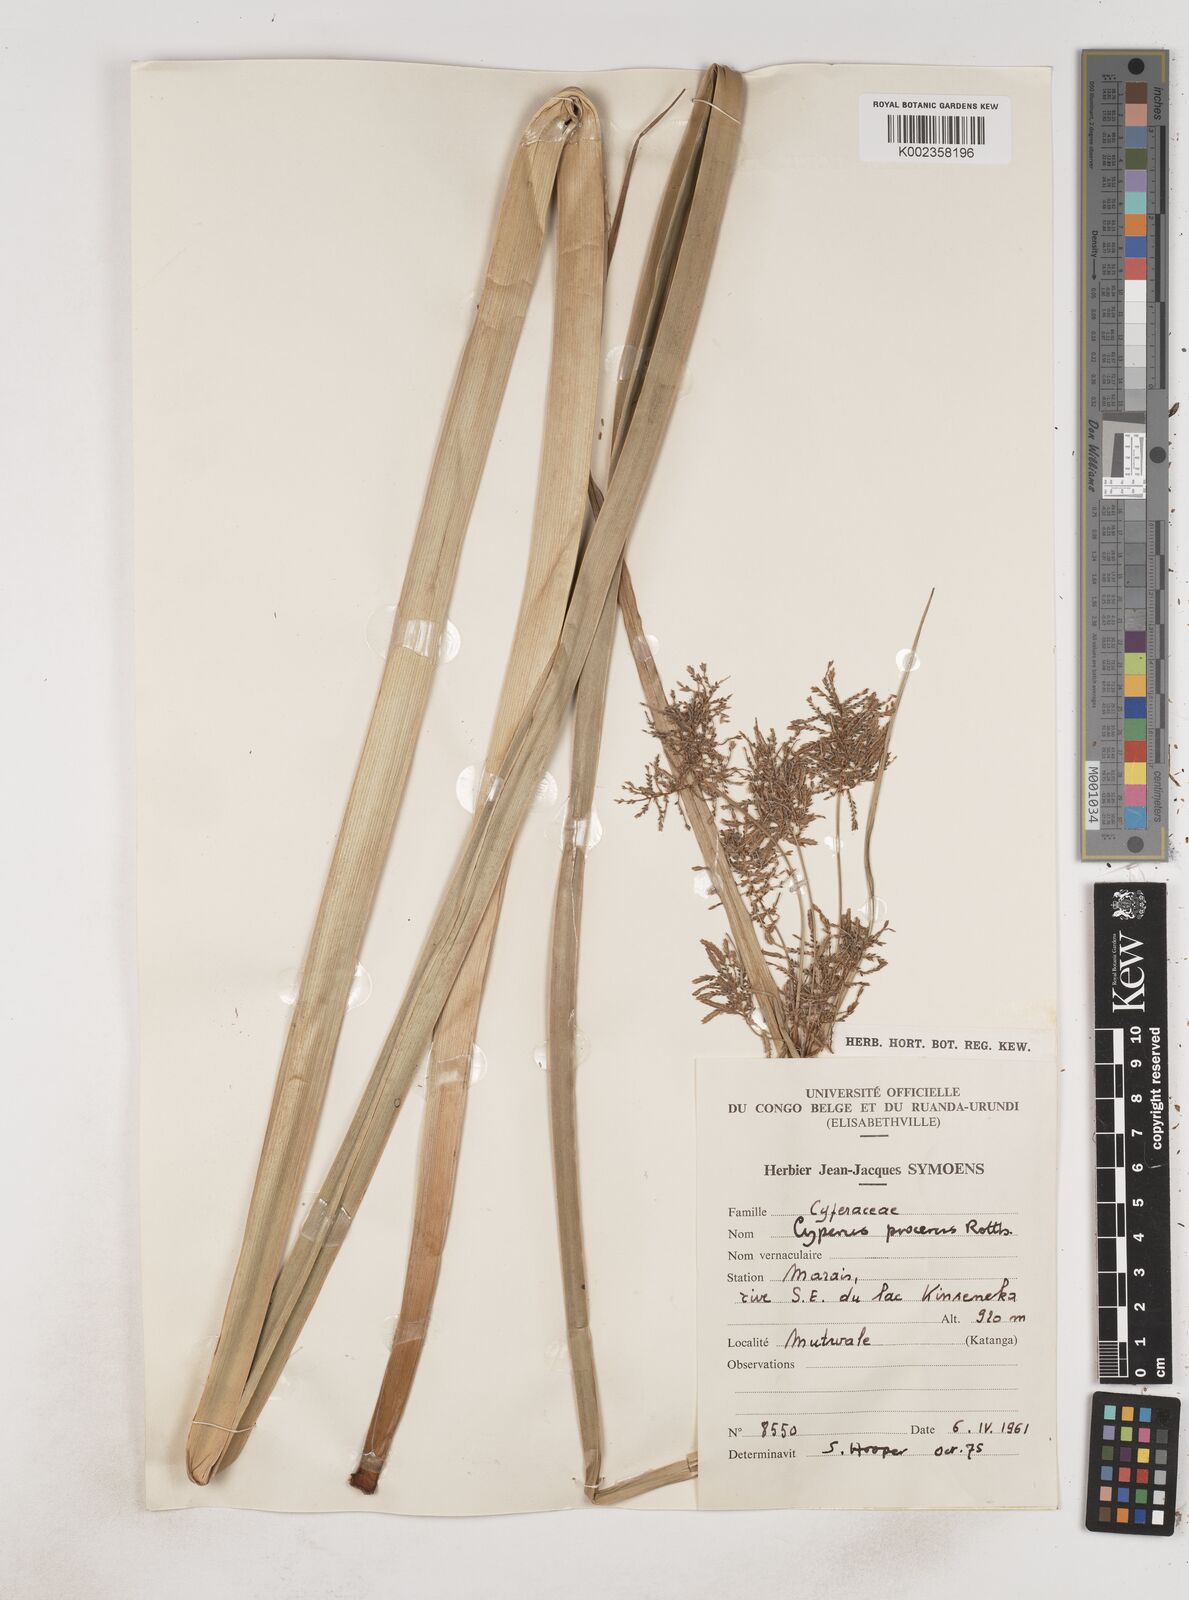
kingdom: Plantae
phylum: Tracheophyta
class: Liliopsida
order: Poales
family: Cyperaceae
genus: Cyperus
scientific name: Cyperus procerus
